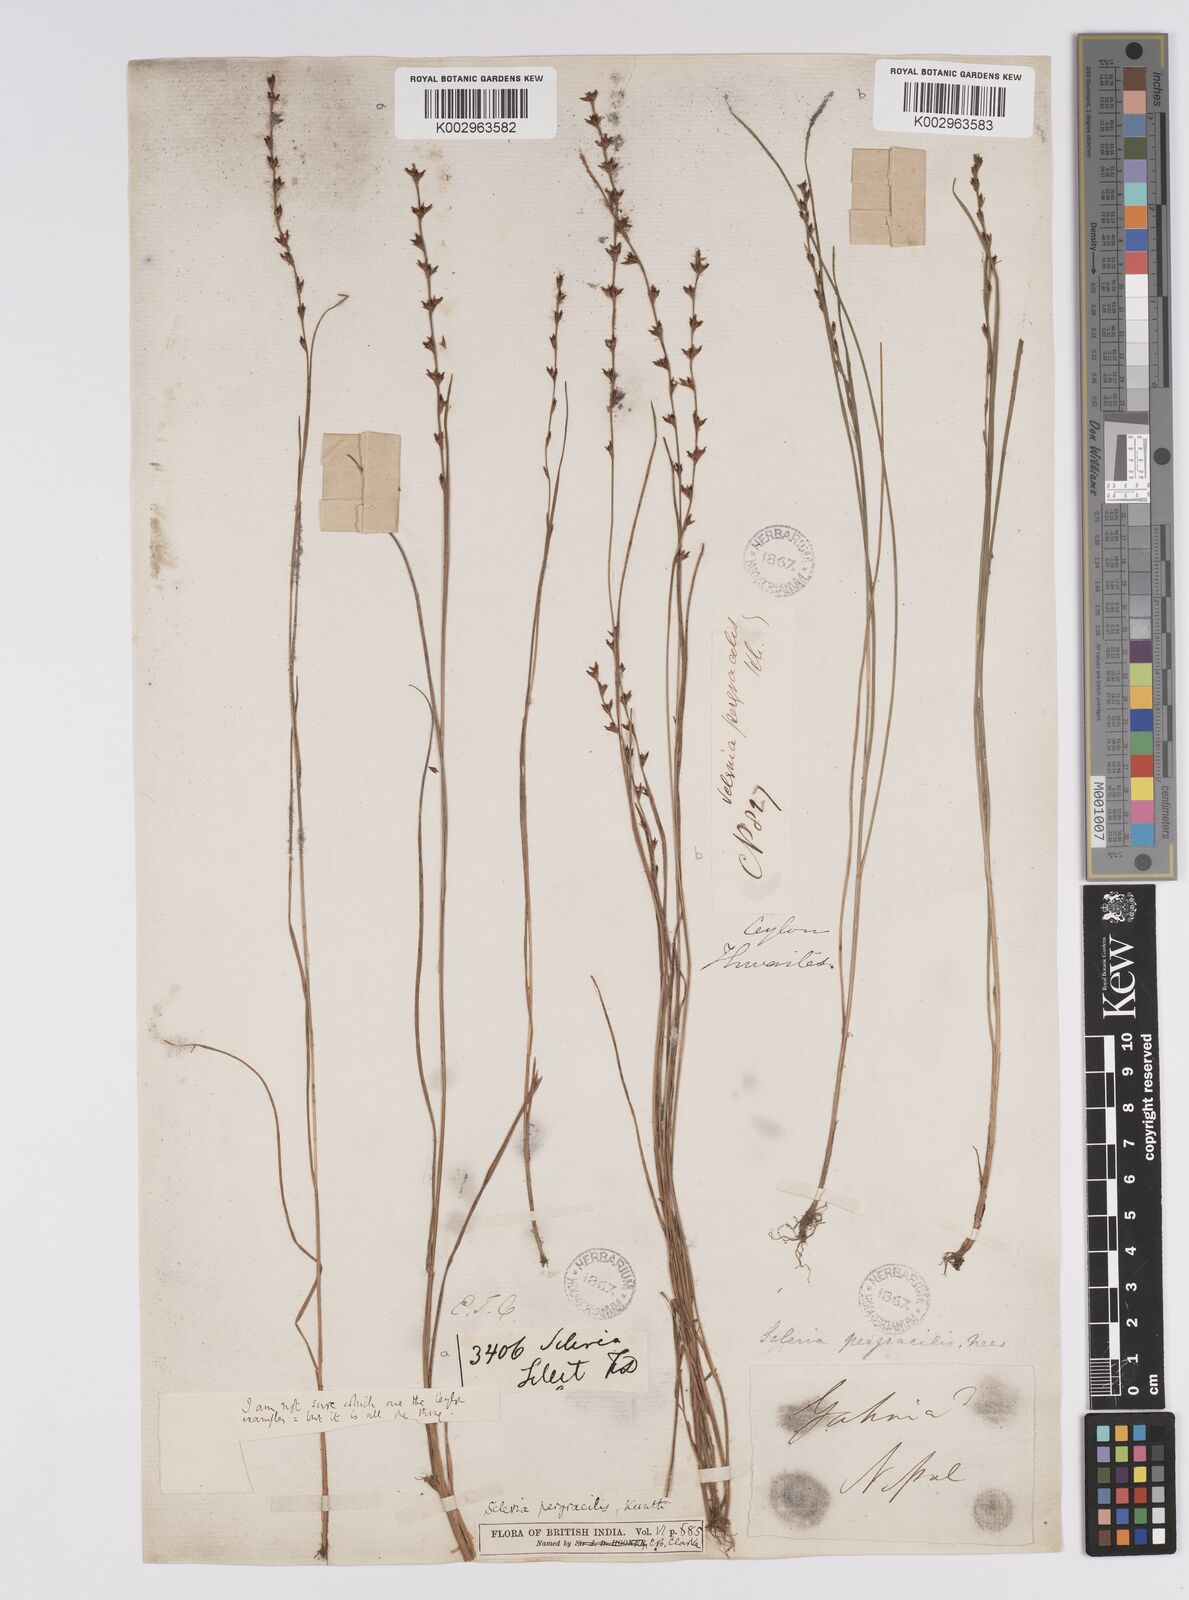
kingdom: Plantae
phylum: Tracheophyta
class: Liliopsida
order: Poales
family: Cyperaceae
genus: Scleria
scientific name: Scleria pergracilis
